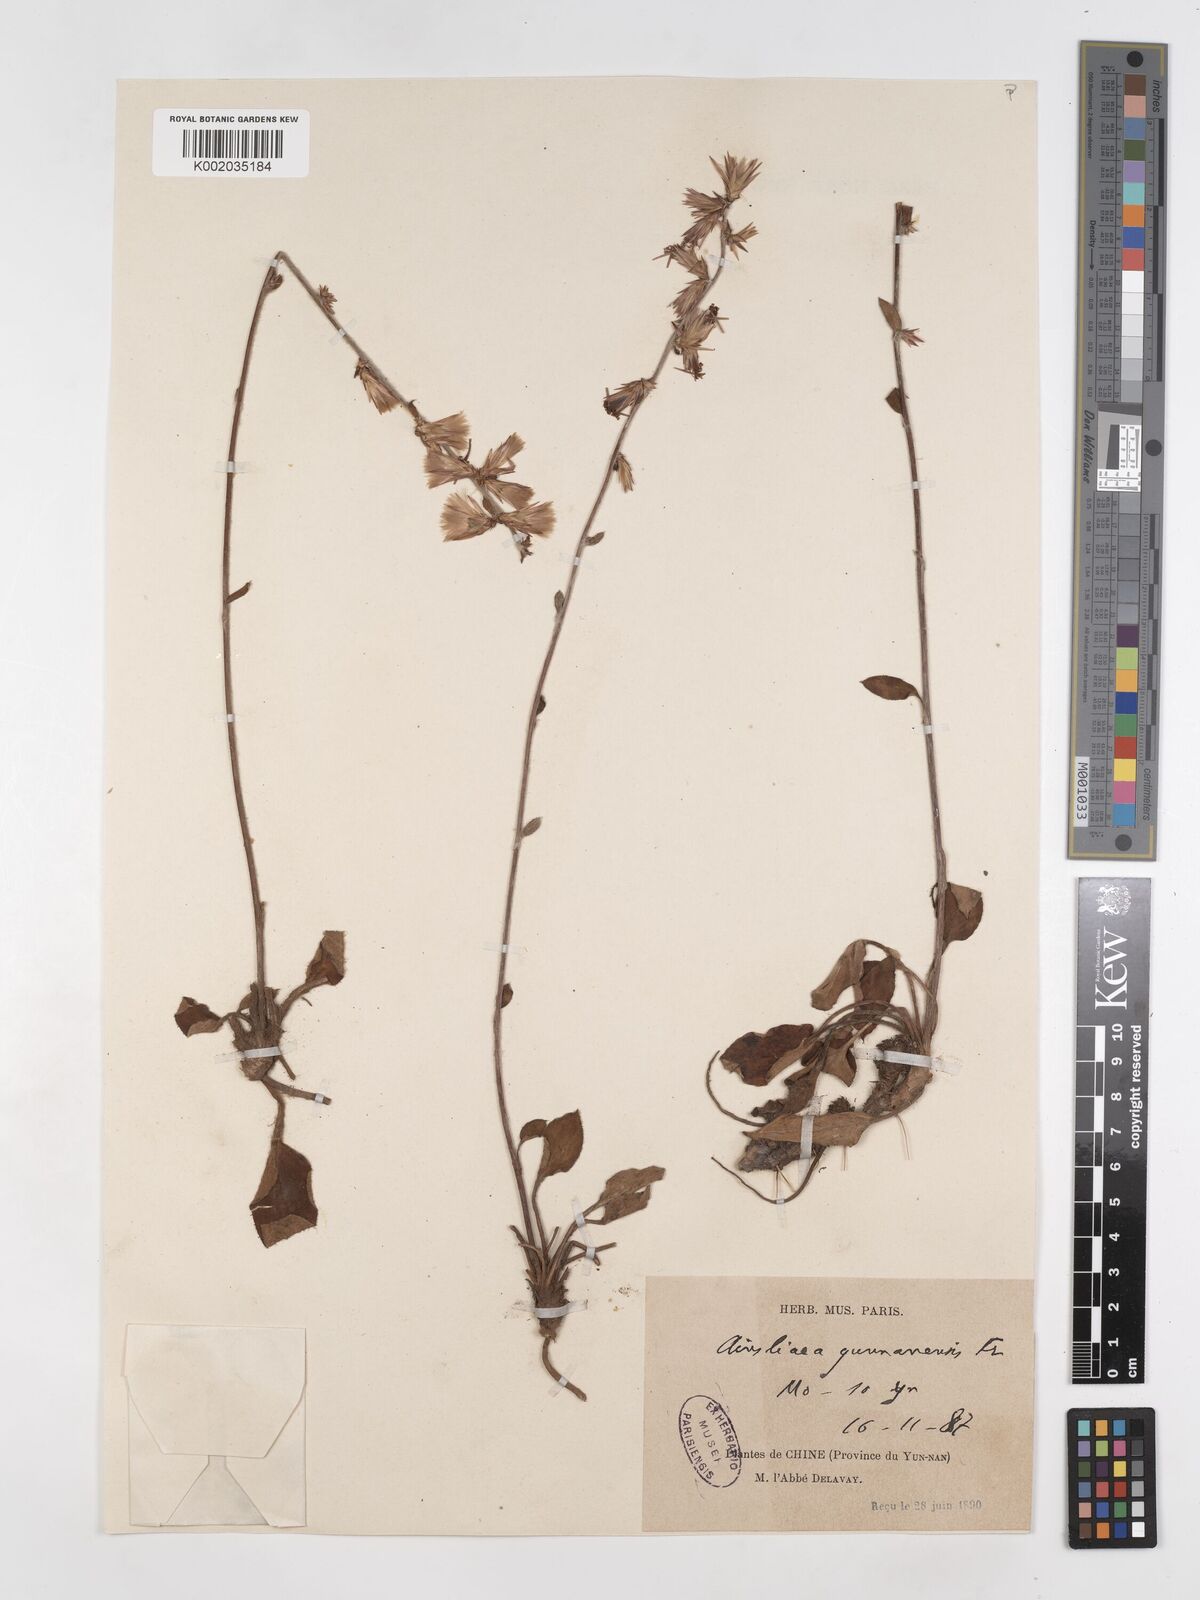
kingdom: Plantae
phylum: Tracheophyta
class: Magnoliopsida
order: Asterales
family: Asteraceae
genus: Ainsliaea
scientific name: Ainsliaea yunnanensis
